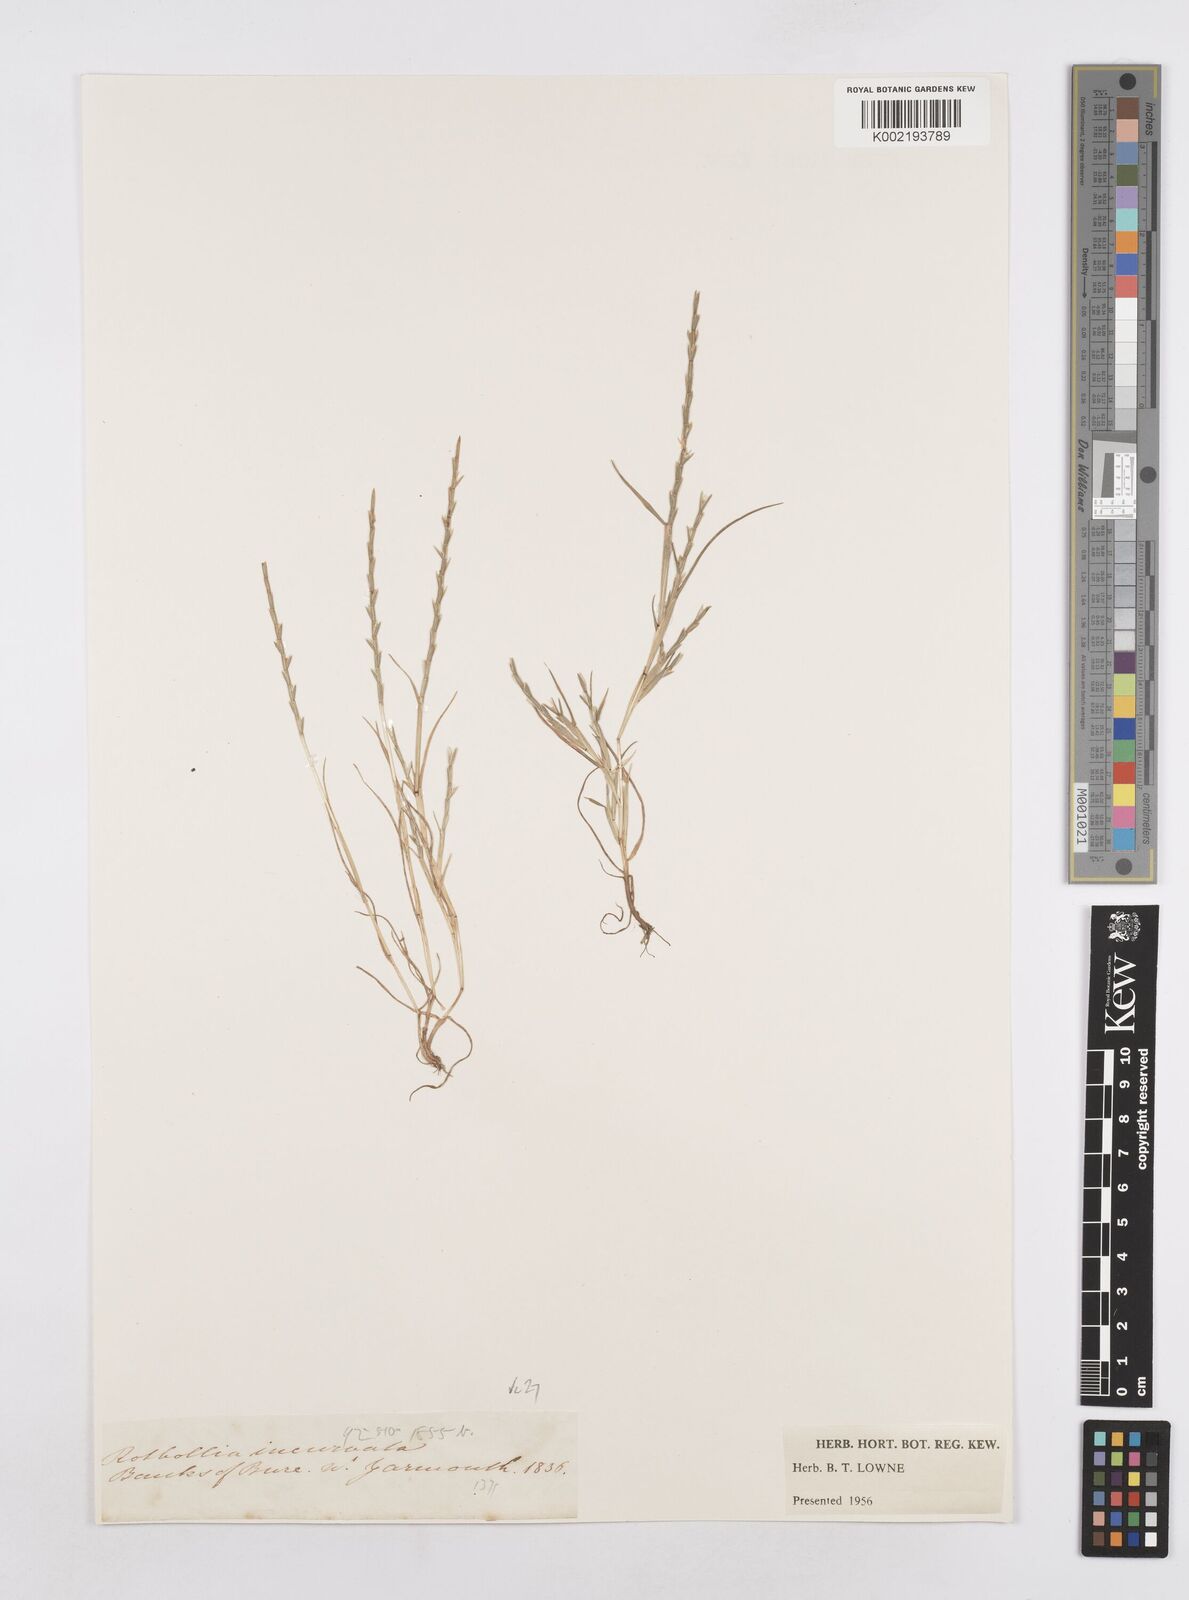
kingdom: Plantae
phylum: Tracheophyta
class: Liliopsida
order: Poales
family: Poaceae
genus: Parapholis
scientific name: Parapholis strigosa
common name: Hard-grass
